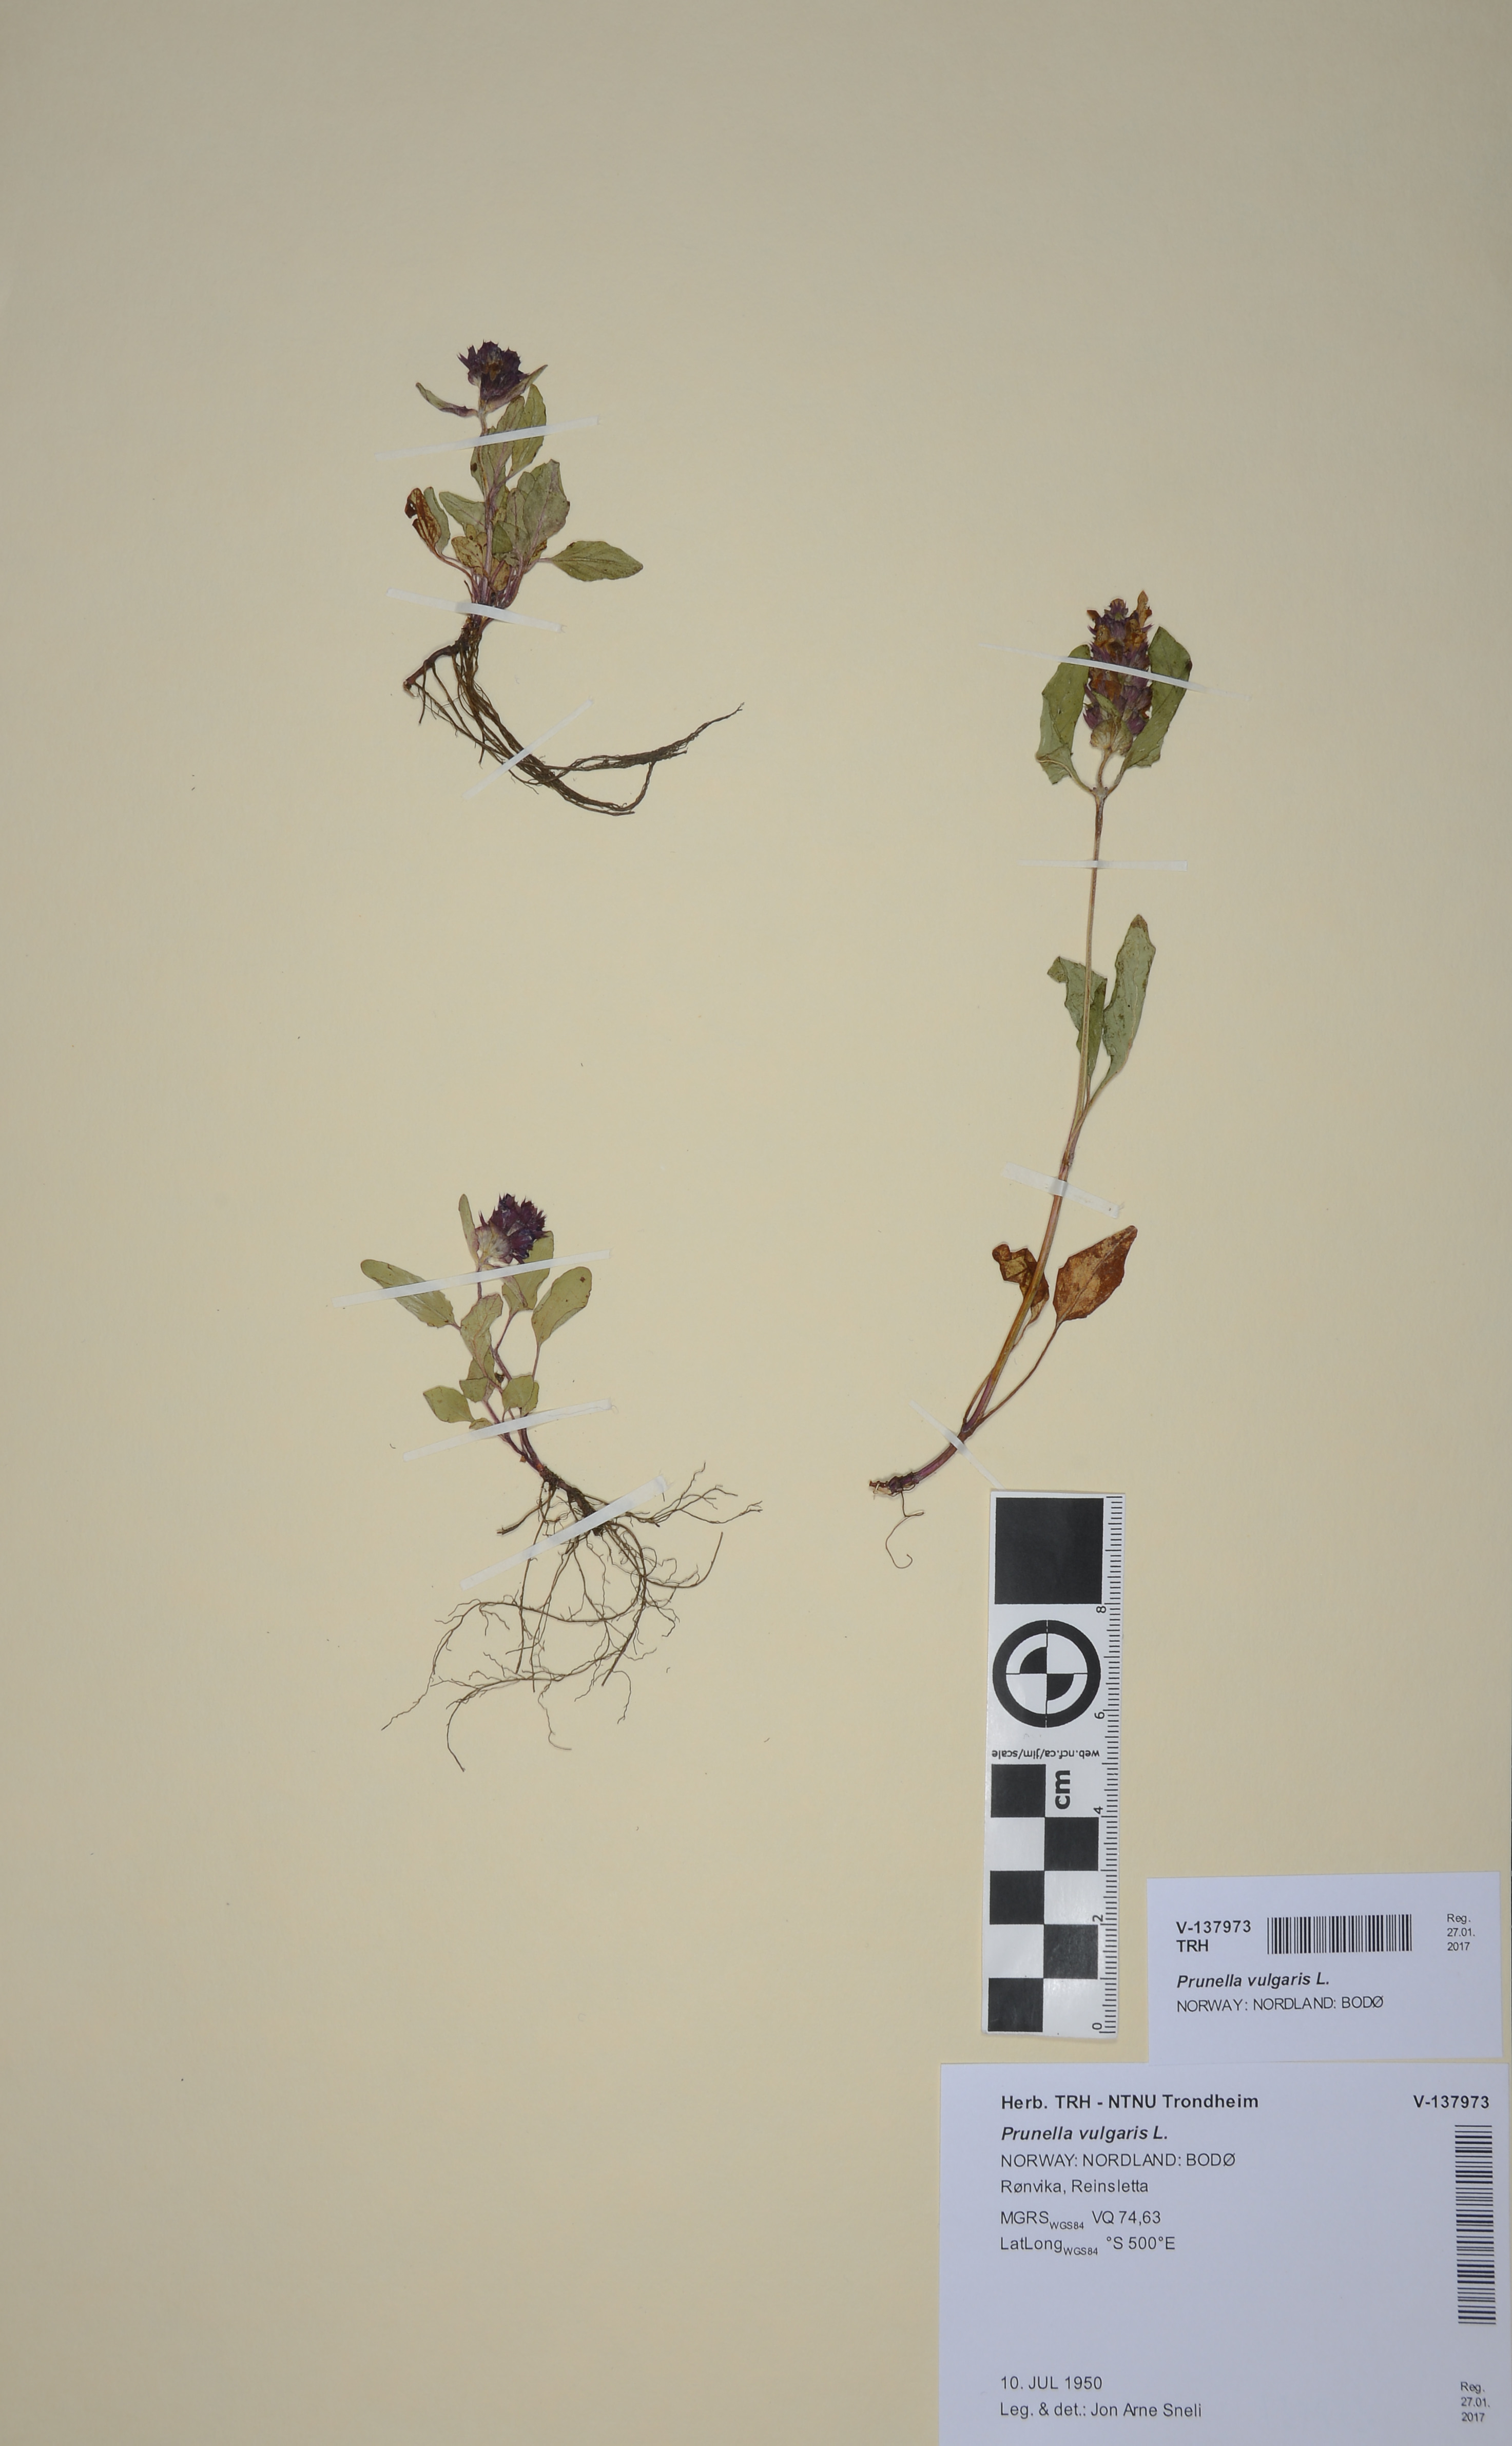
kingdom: Plantae
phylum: Tracheophyta
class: Magnoliopsida
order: Lamiales
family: Lamiaceae
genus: Prunella
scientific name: Prunella vulgaris
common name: Heal-all
